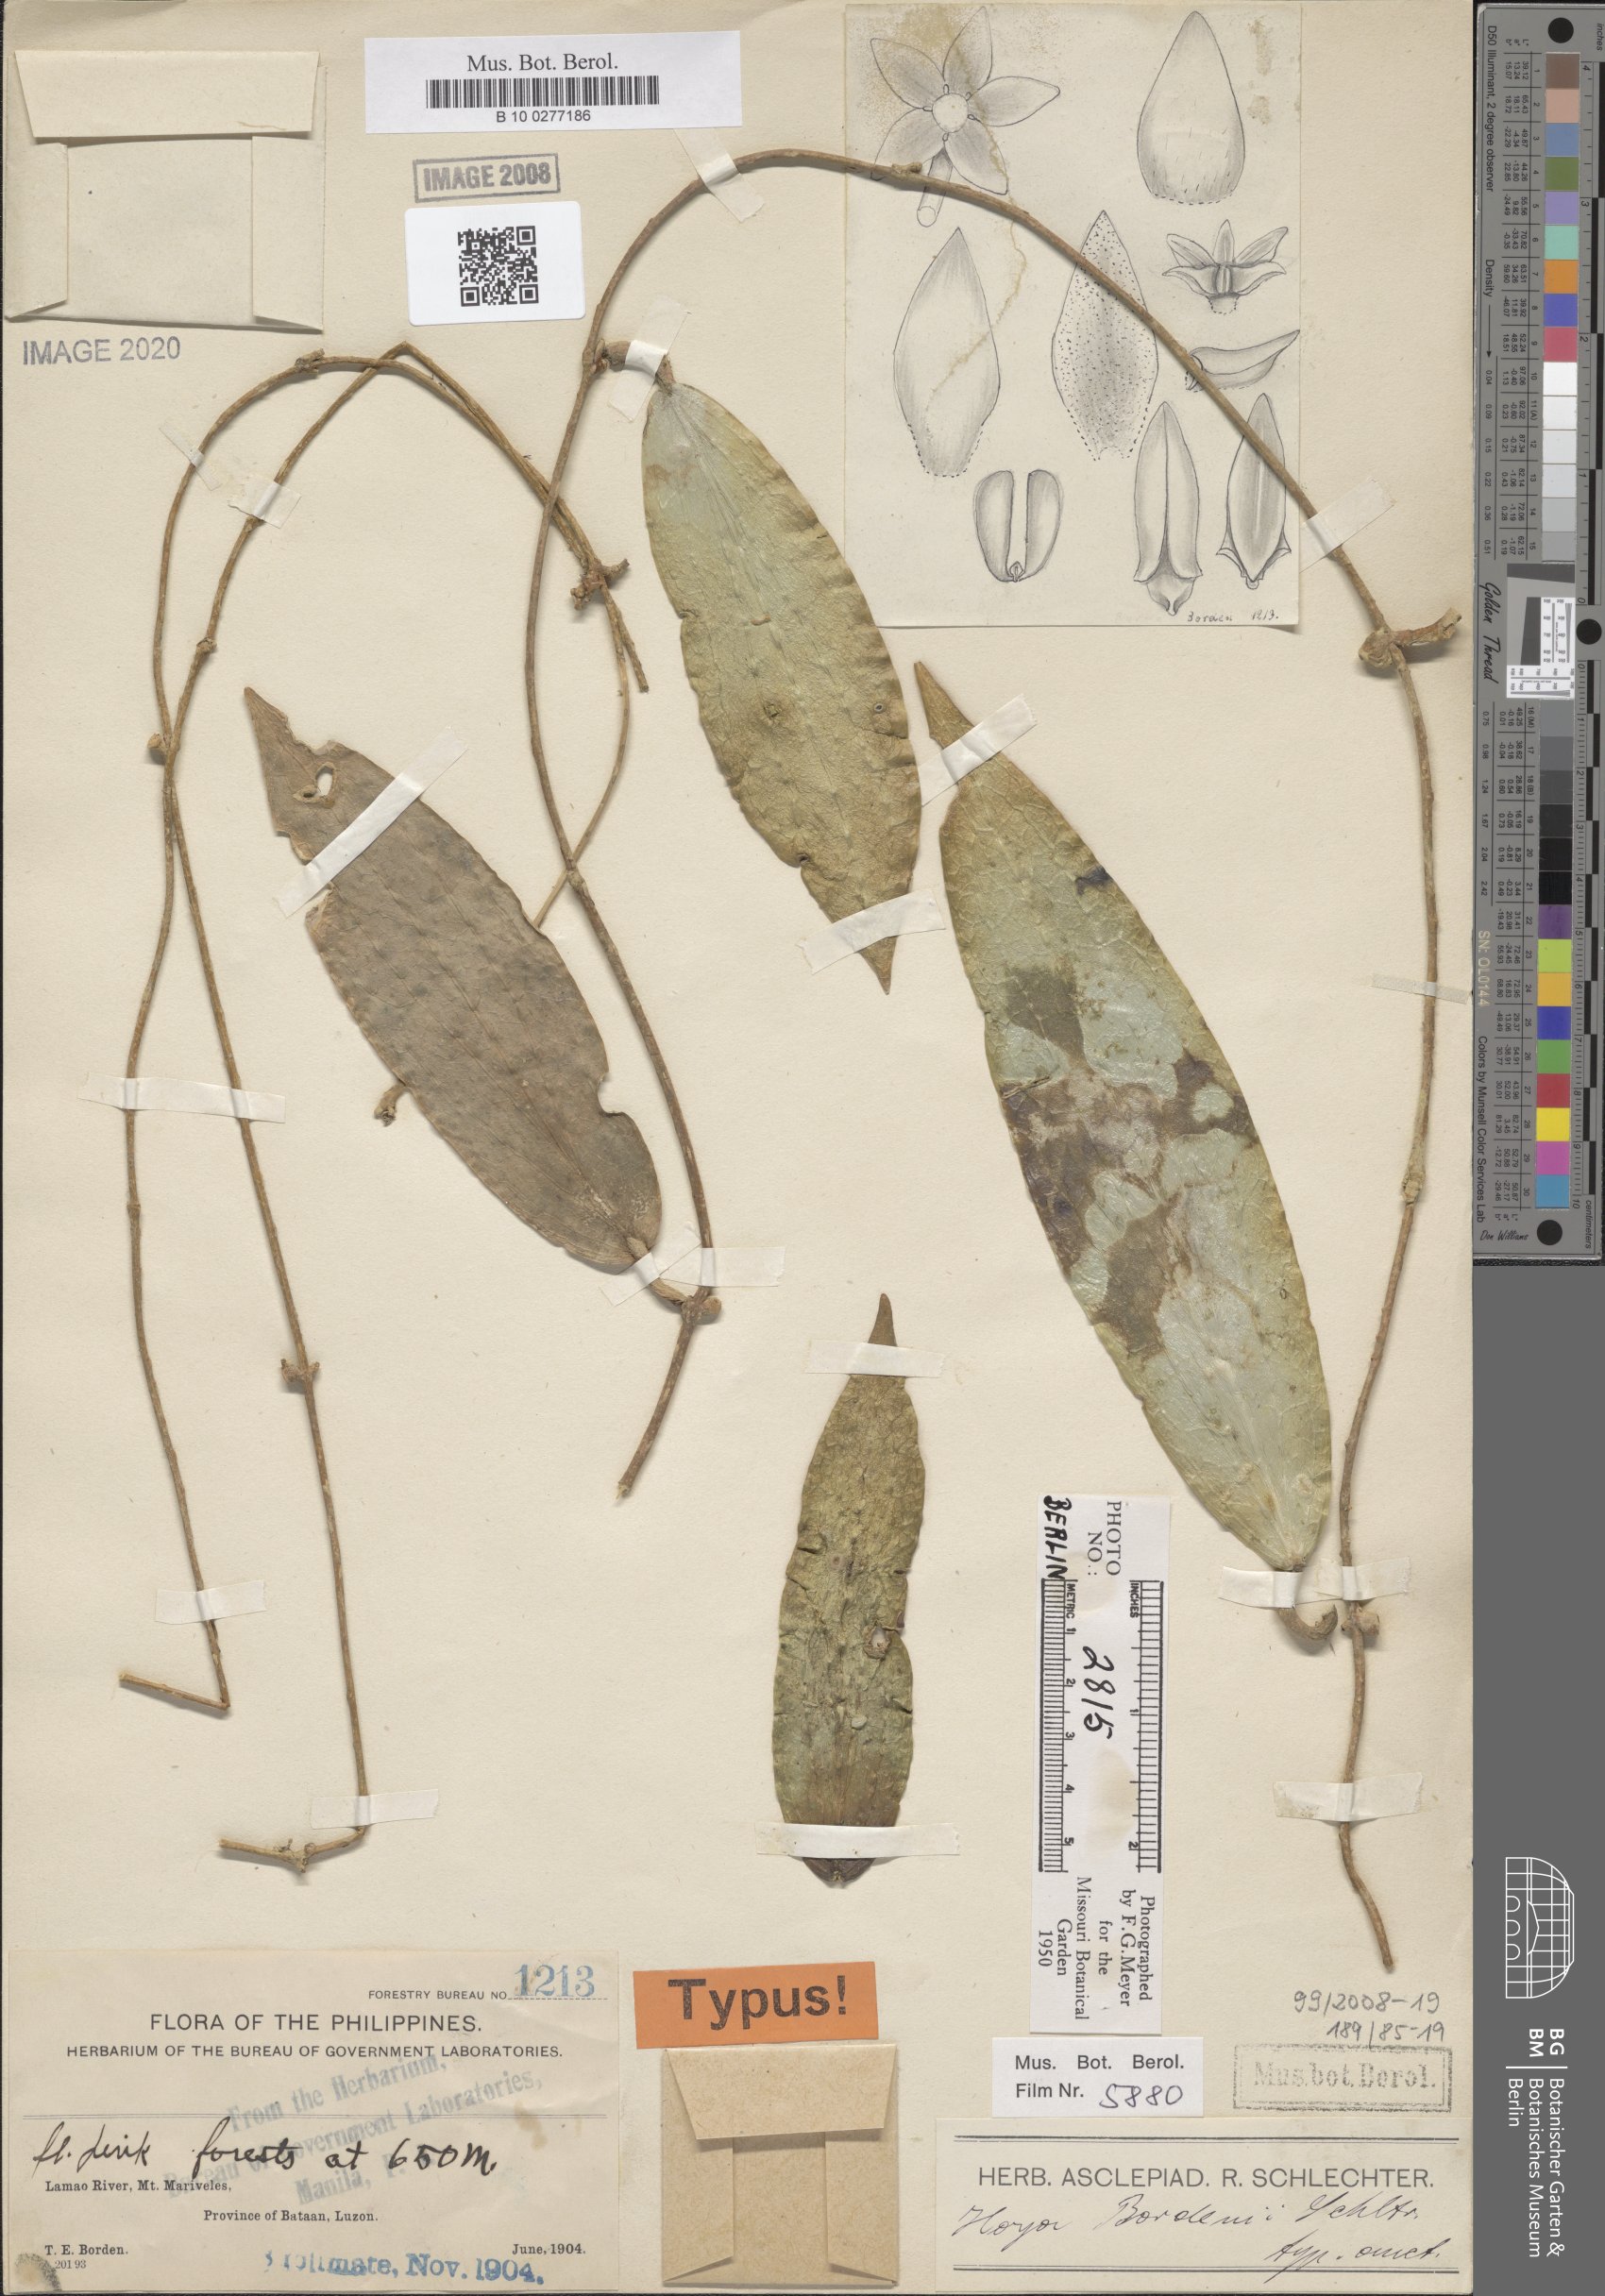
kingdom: Plantae
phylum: Tracheophyta
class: Magnoliopsida
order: Gentianales
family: Apocynaceae
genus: Hoya
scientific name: Hoya bordenii
